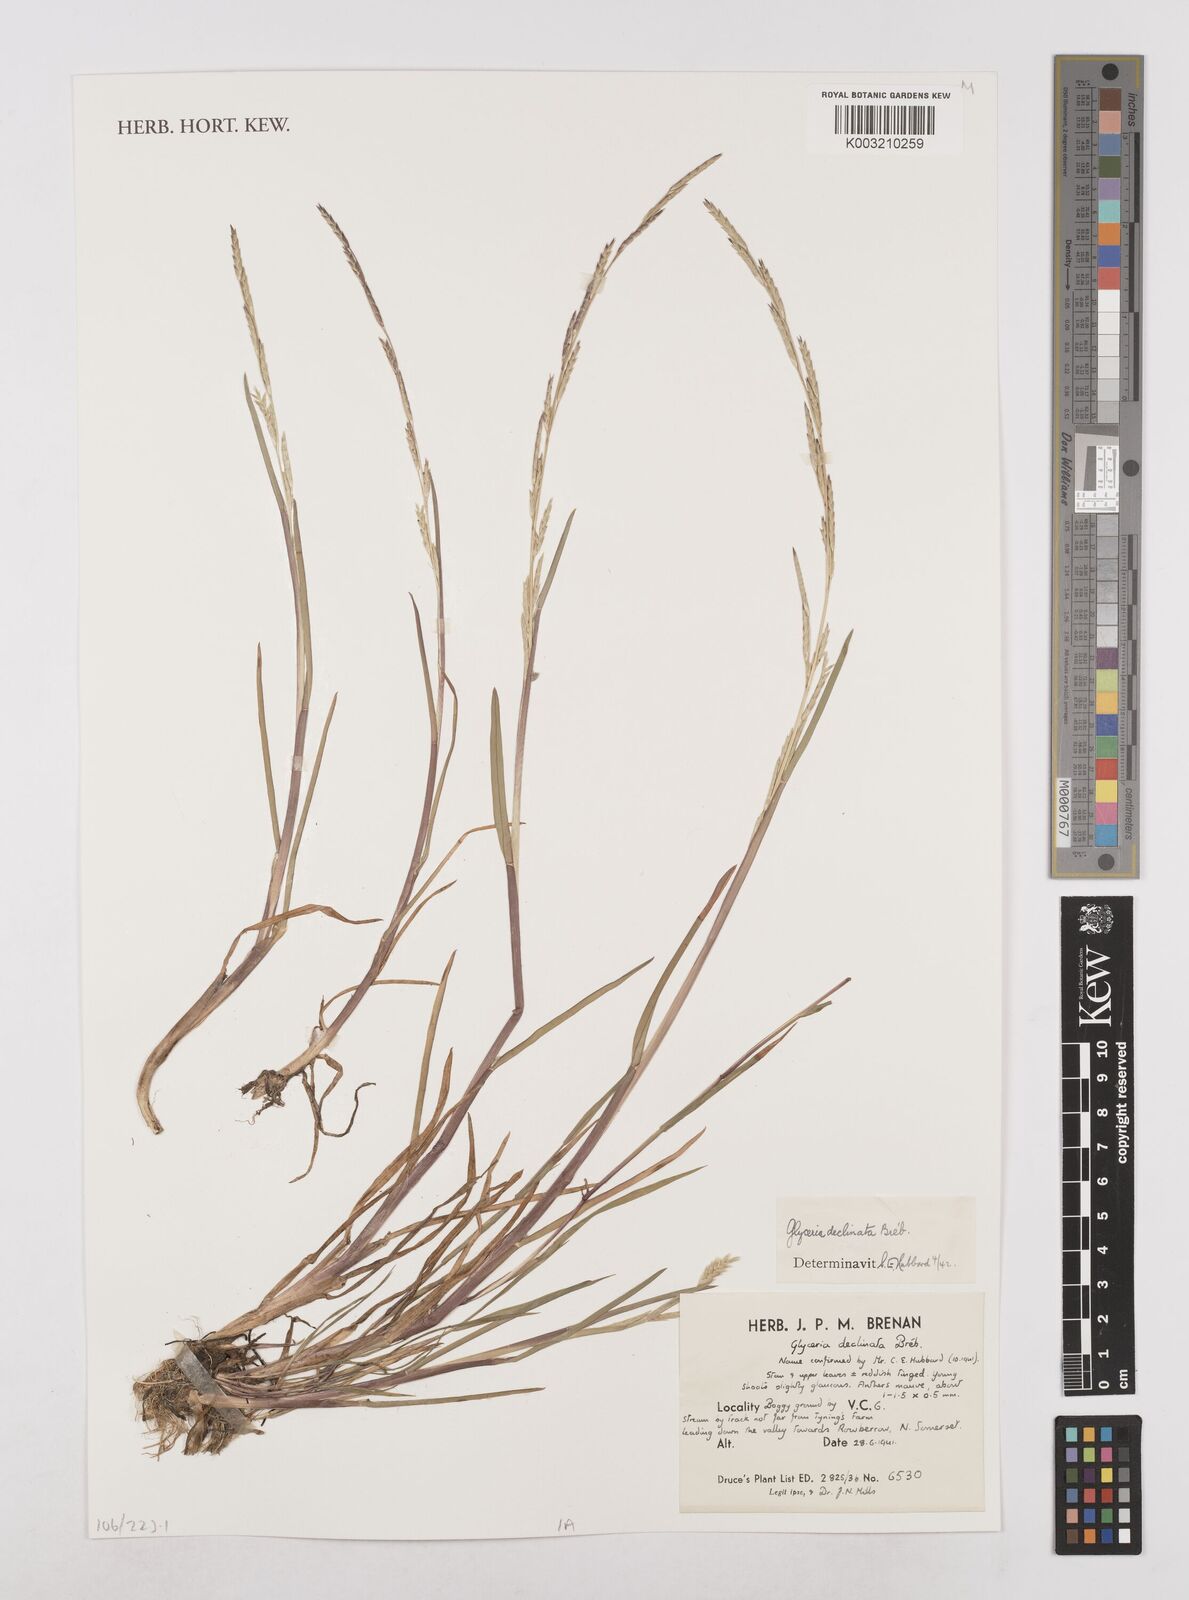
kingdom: Plantae
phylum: Tracheophyta
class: Liliopsida
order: Poales
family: Poaceae
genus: Glyceria
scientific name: Glyceria declinata
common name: Small sweet-grass
